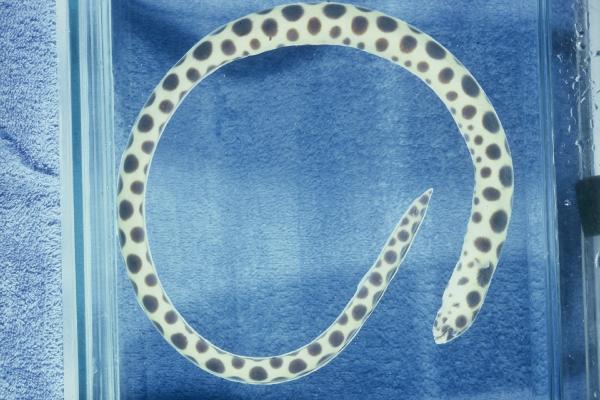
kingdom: Animalia
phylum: Chordata
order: Anguilliformes
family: Ophichthidae
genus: Myrichthys
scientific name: Myrichthys maculosus
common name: Spotted snake eel
